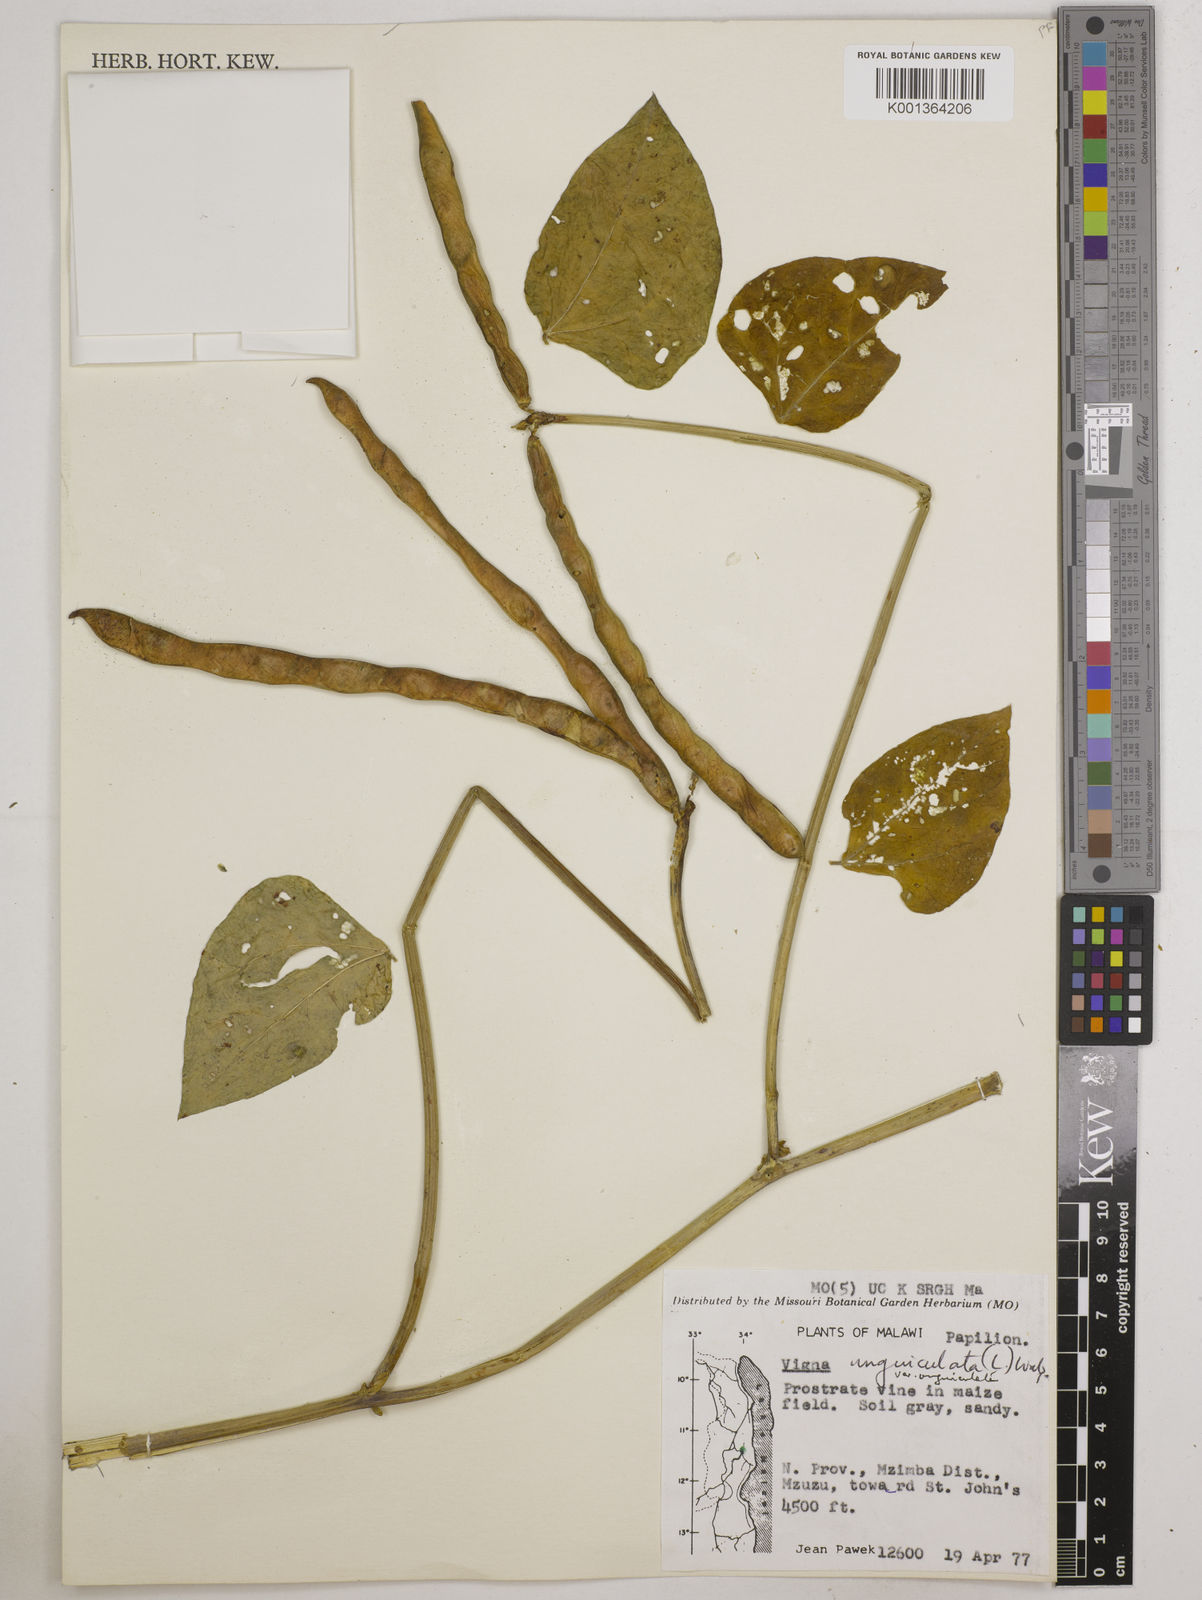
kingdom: Plantae
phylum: Tracheophyta
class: Magnoliopsida
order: Fabales
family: Fabaceae
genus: Vigna
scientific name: Vigna
